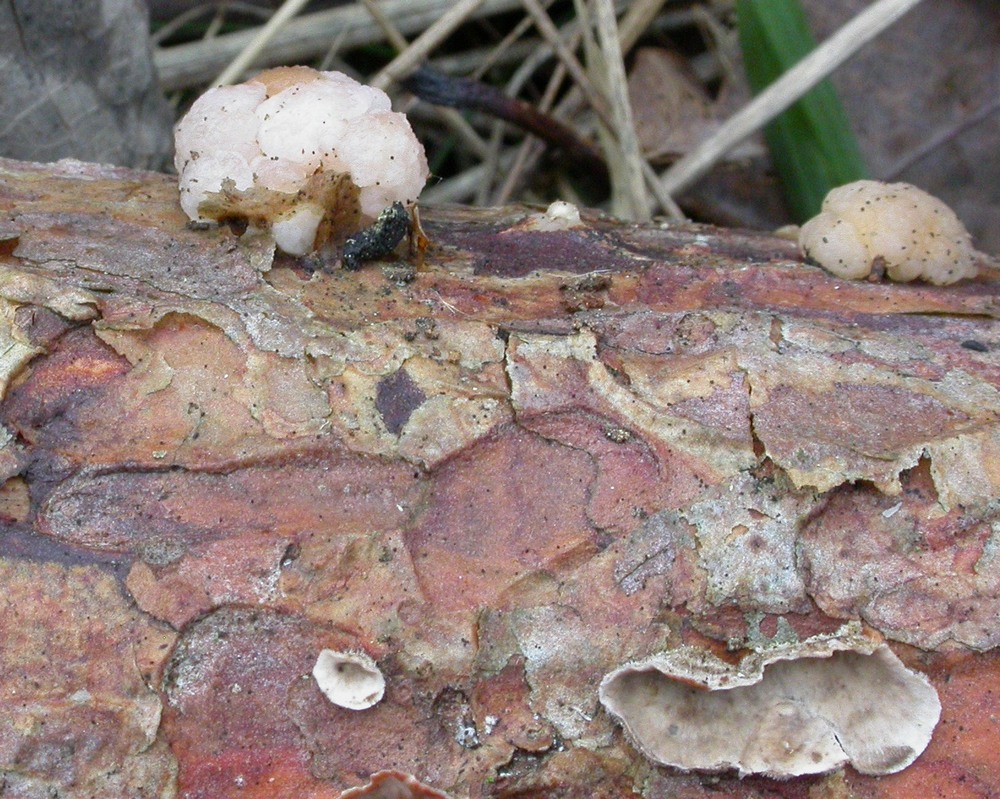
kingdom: Fungi
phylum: Basidiomycota
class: Tremellomycetes
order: Tremellales
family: Naemateliaceae
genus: Naematelia
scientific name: Naematelia encephala
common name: fyrre-bævresvamp
